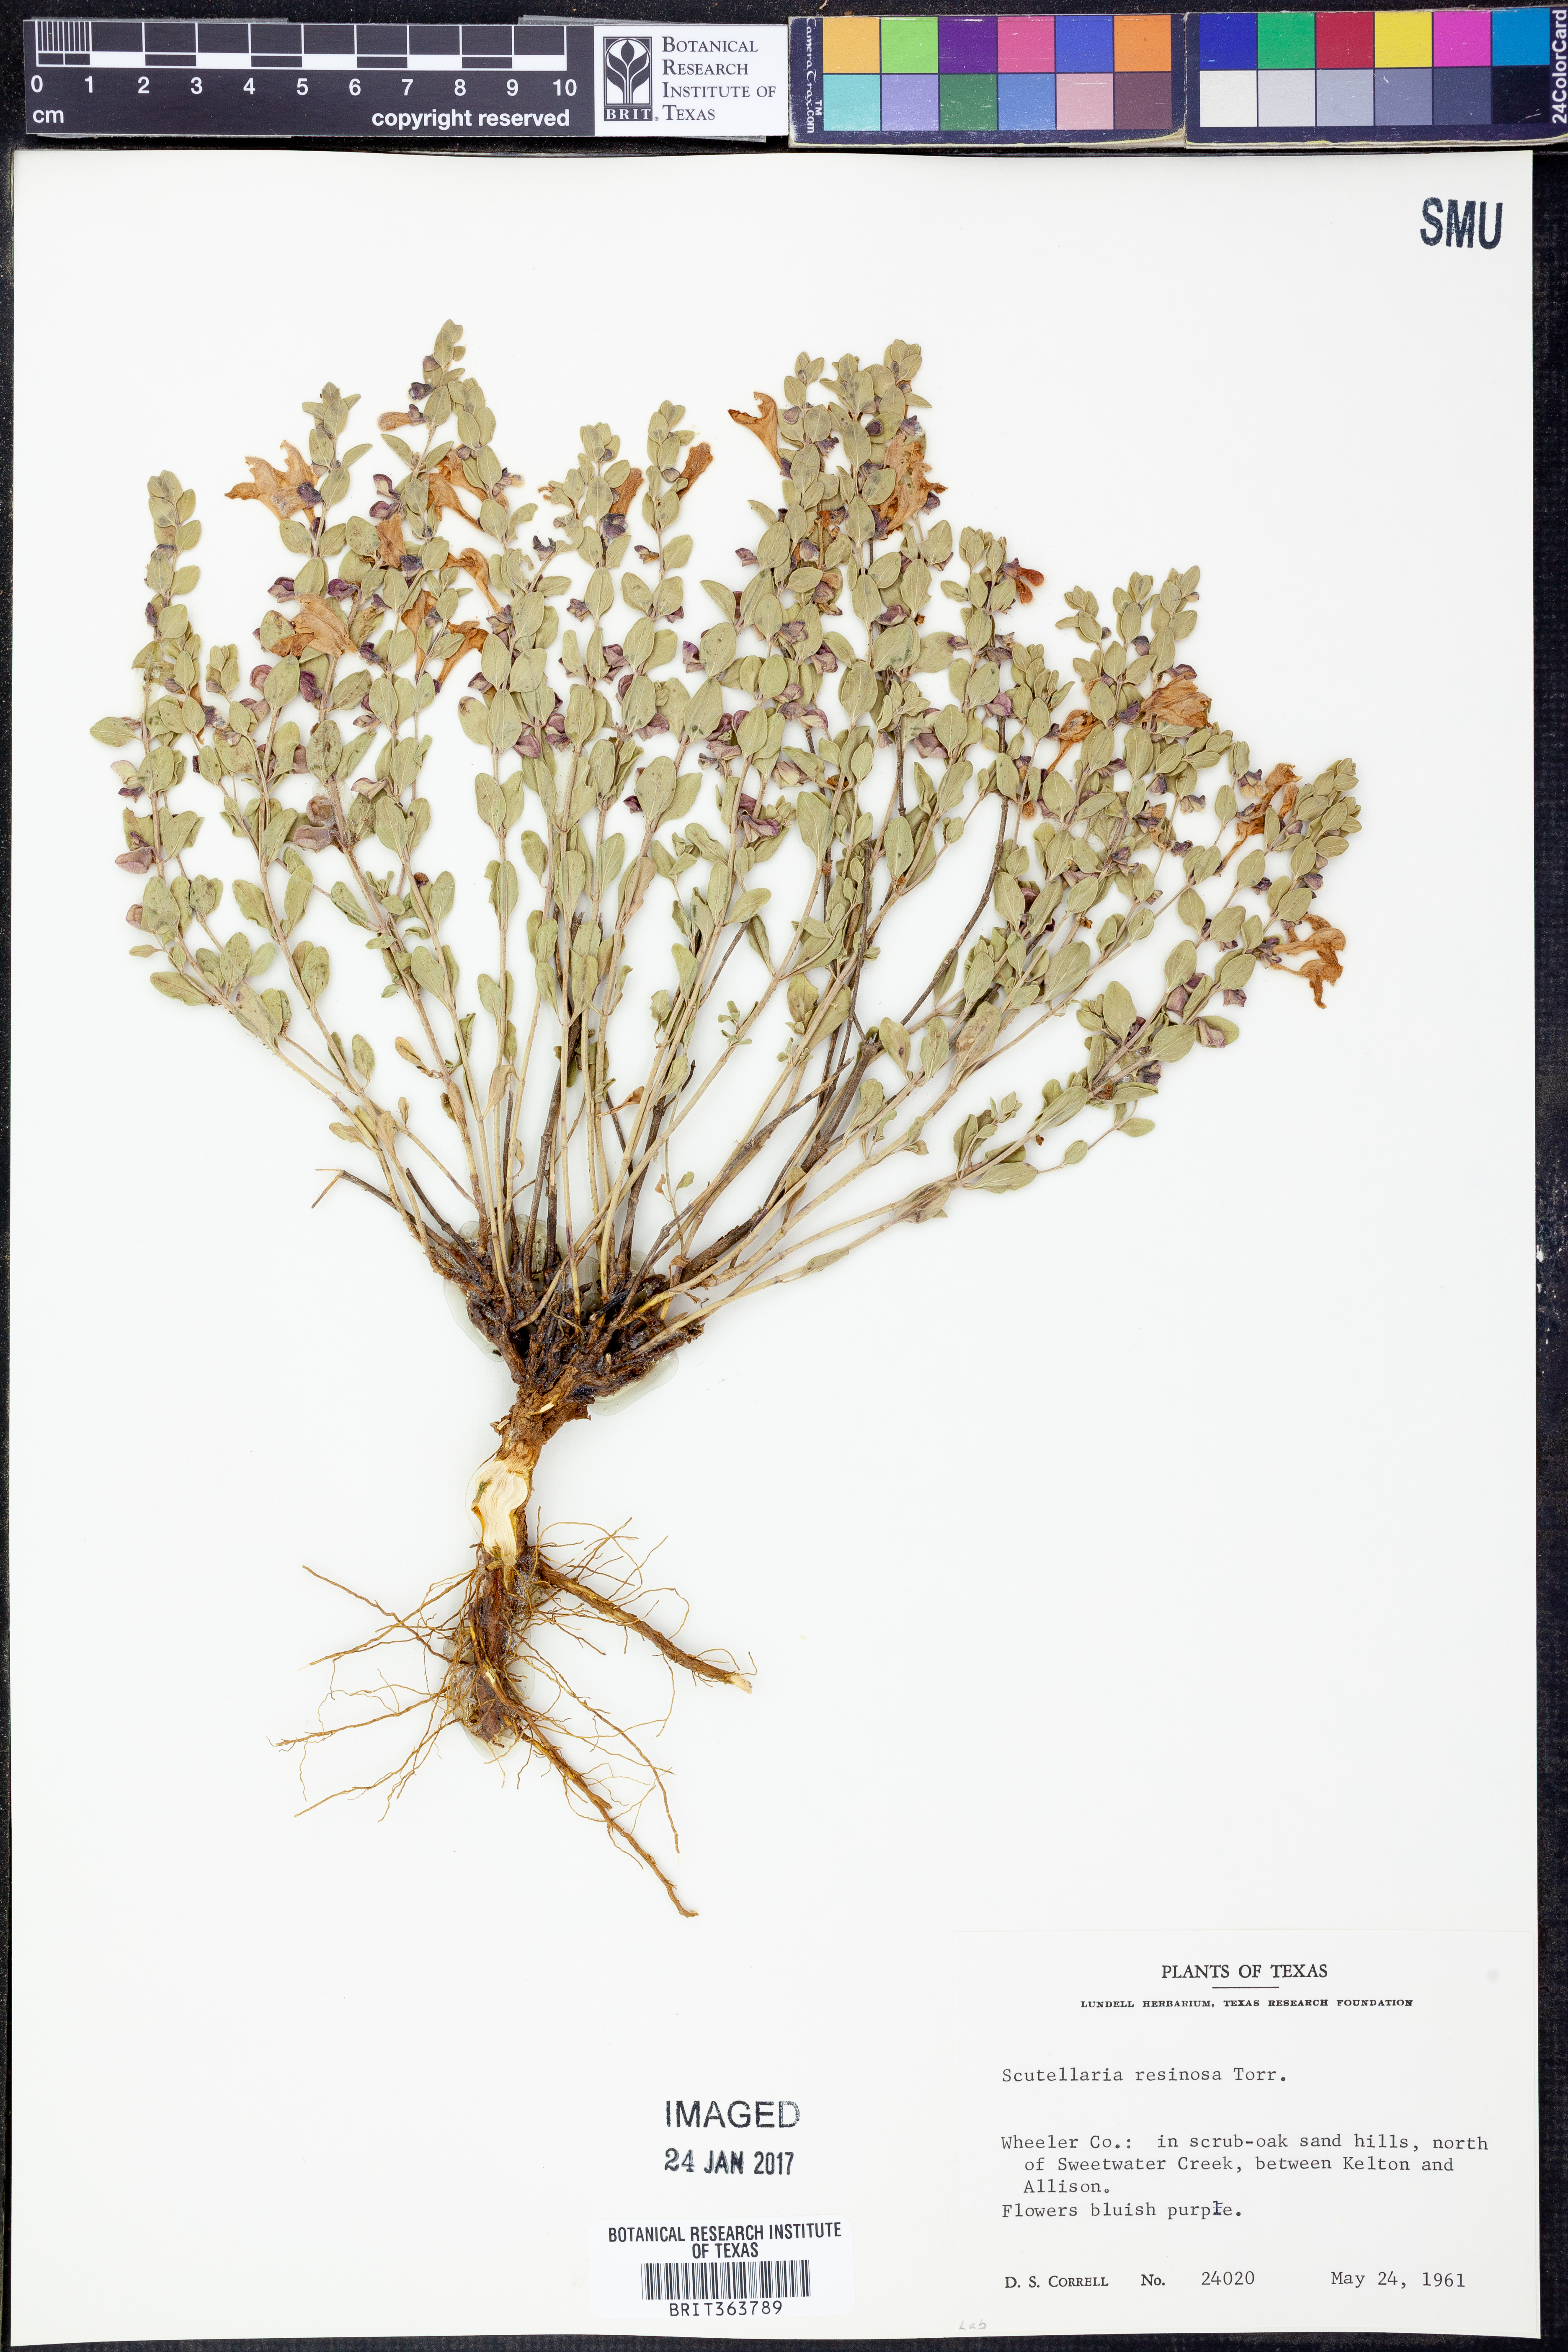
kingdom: Plantae
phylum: Tracheophyta
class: Magnoliopsida
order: Lamiales
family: Lamiaceae
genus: Scutellaria
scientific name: Scutellaria resinosa
